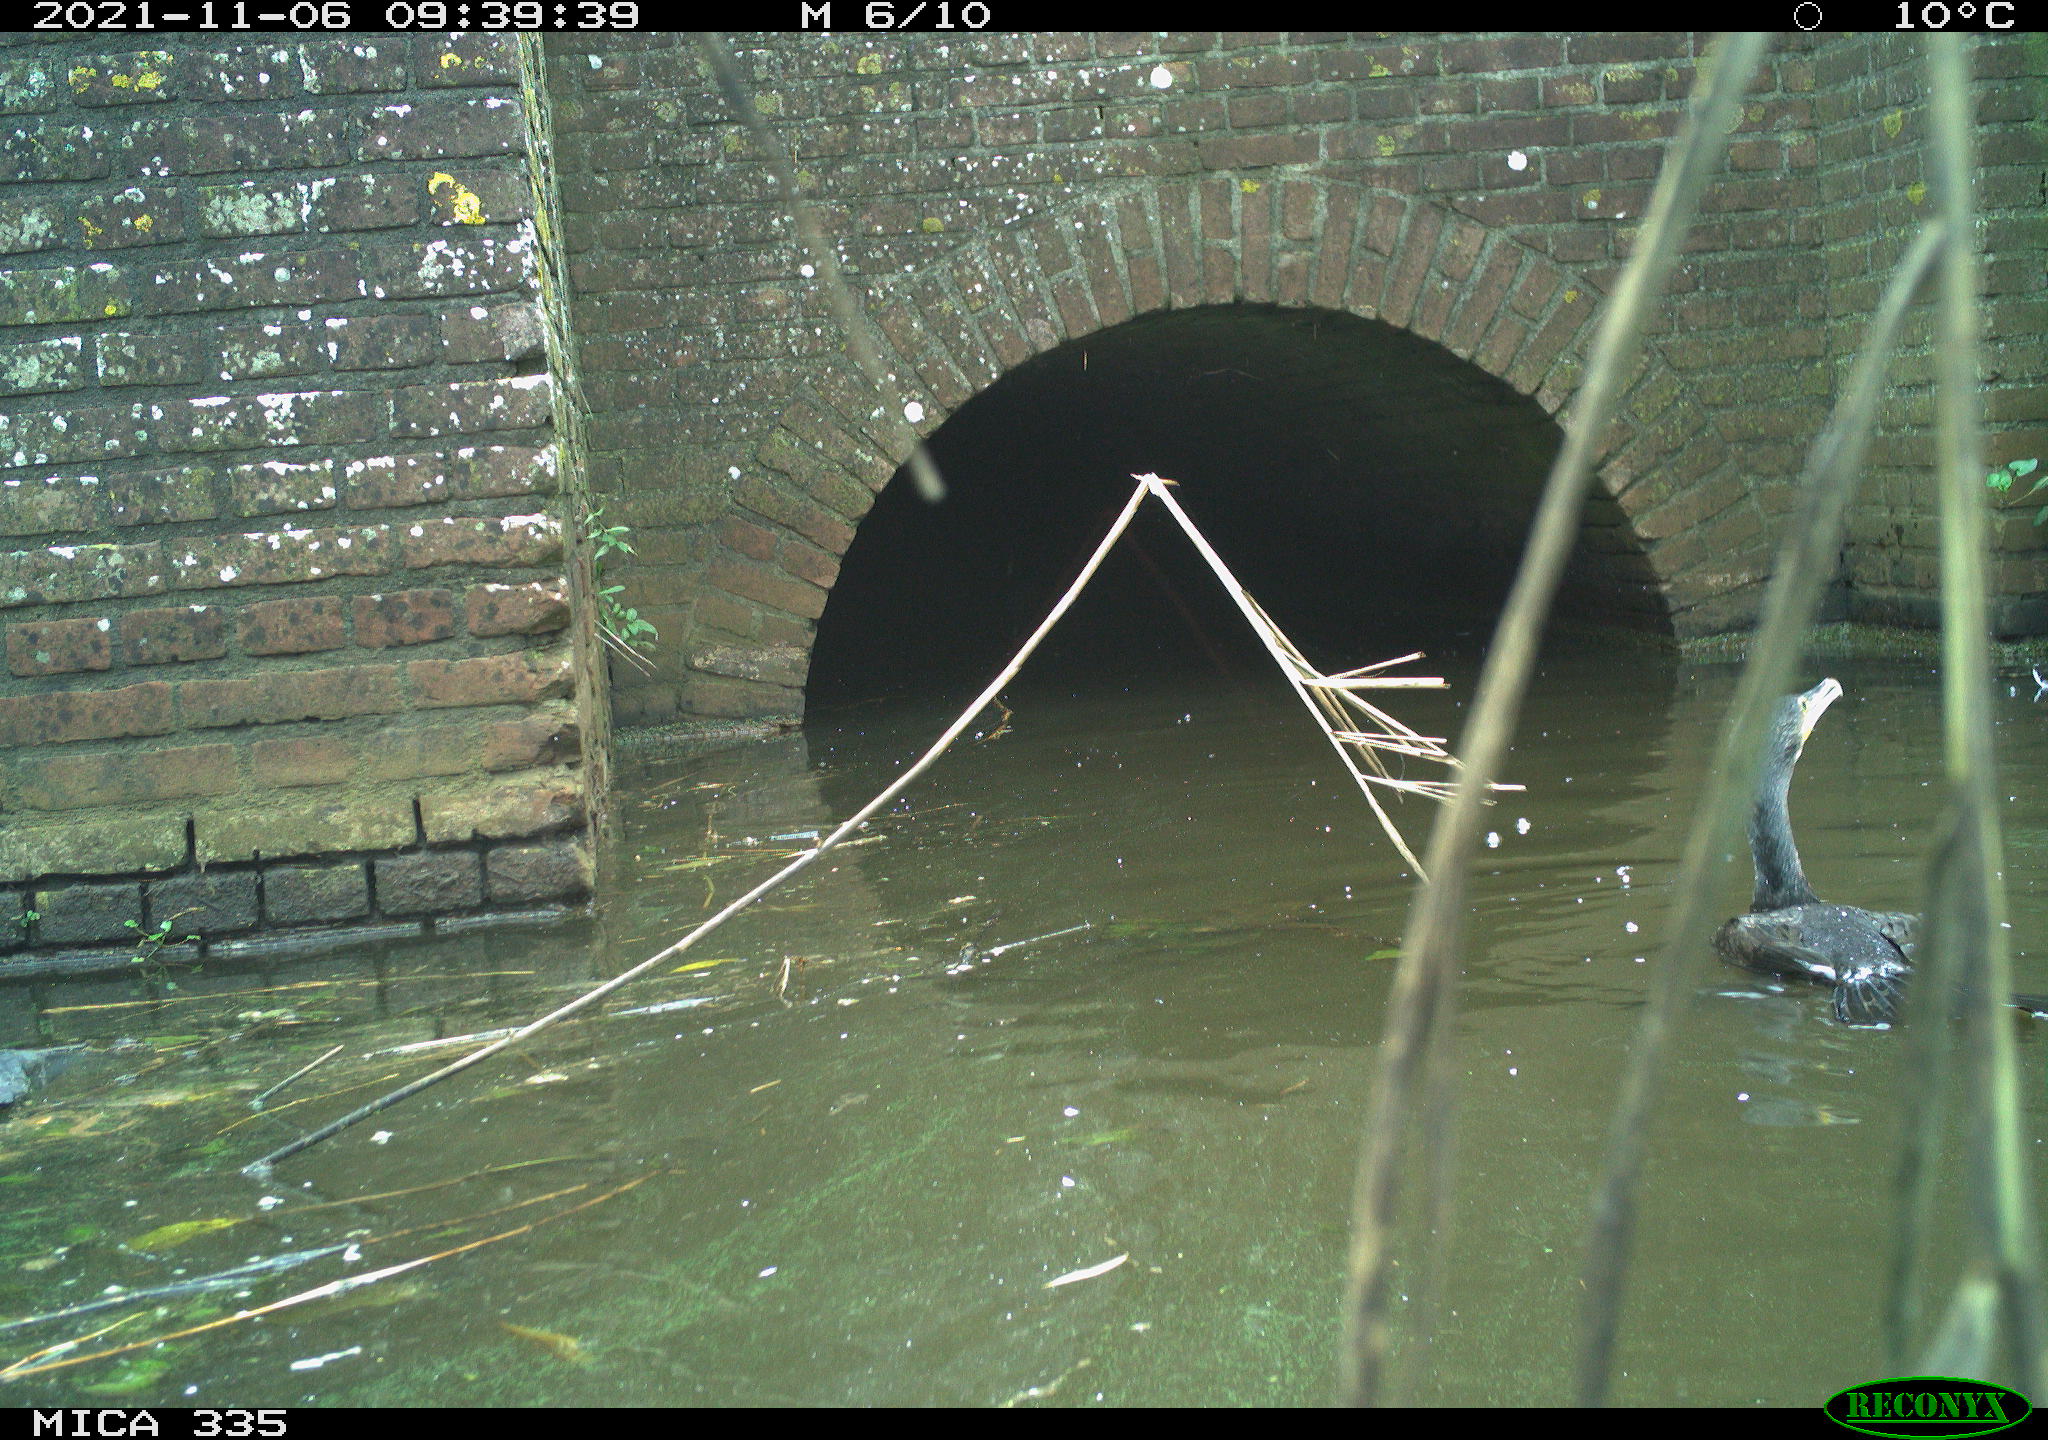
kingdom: Animalia
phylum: Chordata
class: Aves
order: Suliformes
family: Phalacrocoracidae
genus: Phalacrocorax
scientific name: Phalacrocorax carbo
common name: Great cormorant
